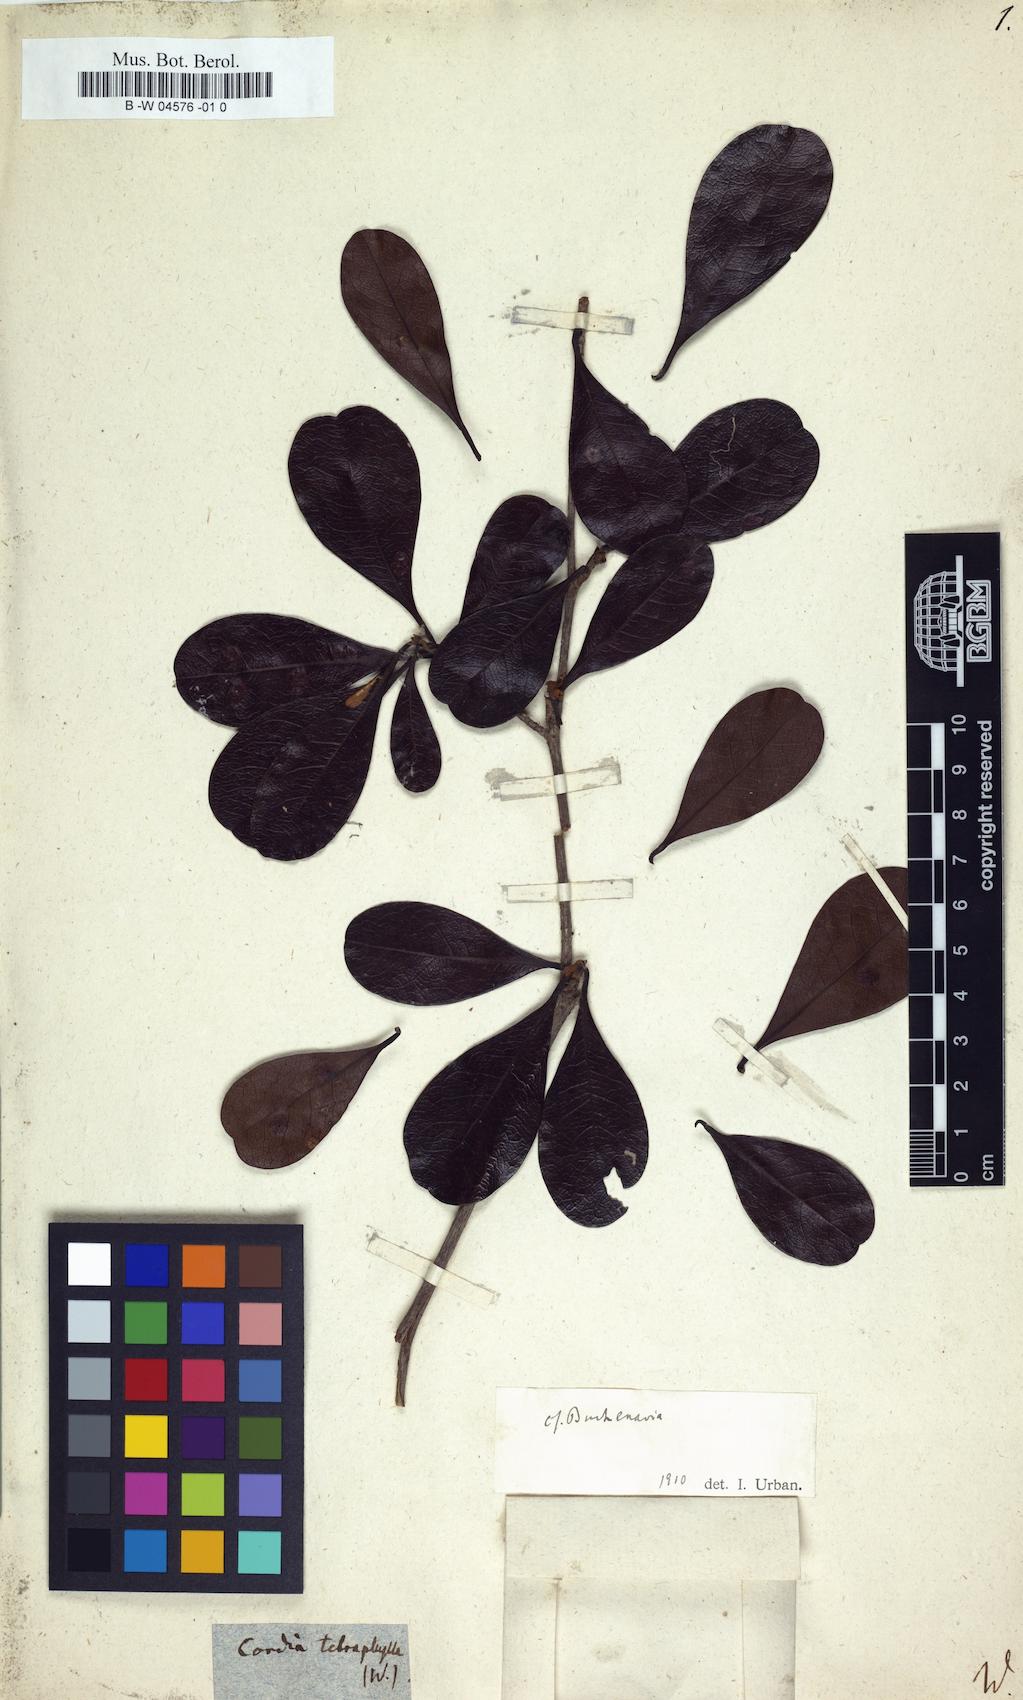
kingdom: Plantae
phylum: Tracheophyta
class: Magnoliopsida
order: Myrtales
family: Combretaceae
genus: Terminalia
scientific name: Terminalia tetraphylla
